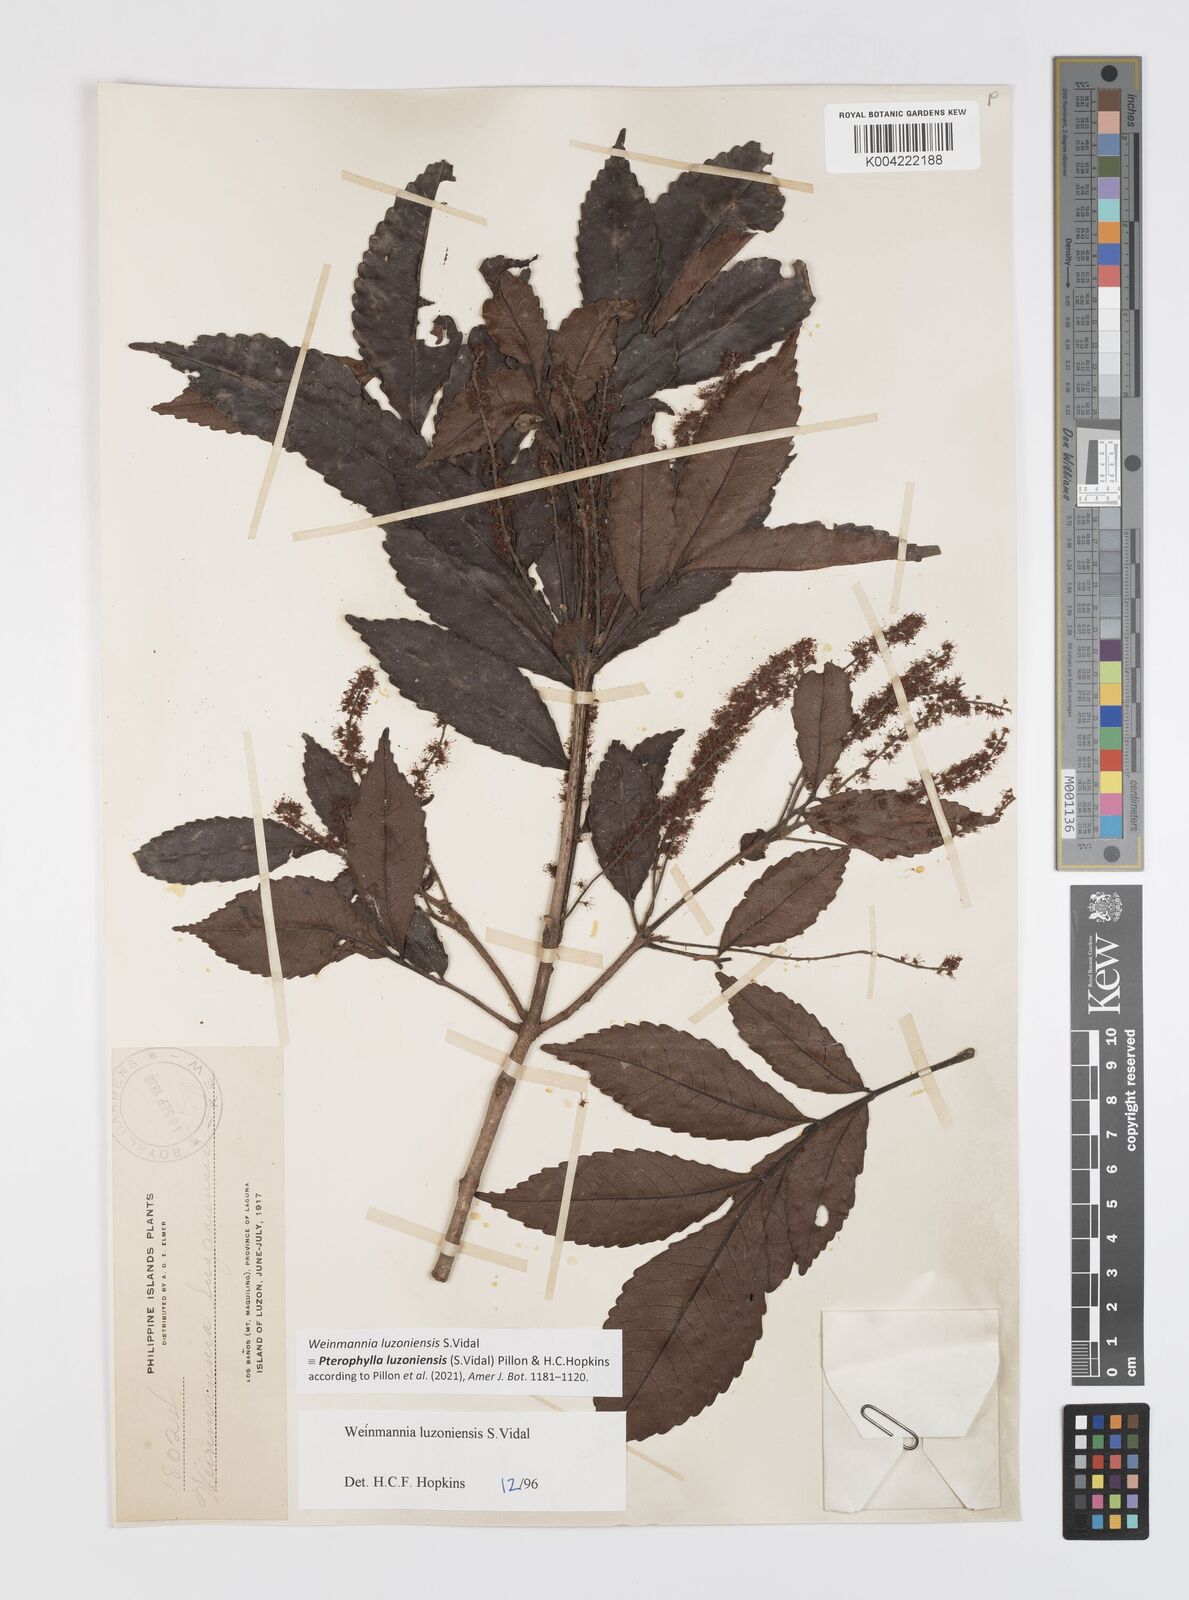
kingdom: Plantae
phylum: Tracheophyta
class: Magnoliopsida
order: Oxalidales
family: Cunoniaceae
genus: Pterophylla
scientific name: Pterophylla luzoniensis
